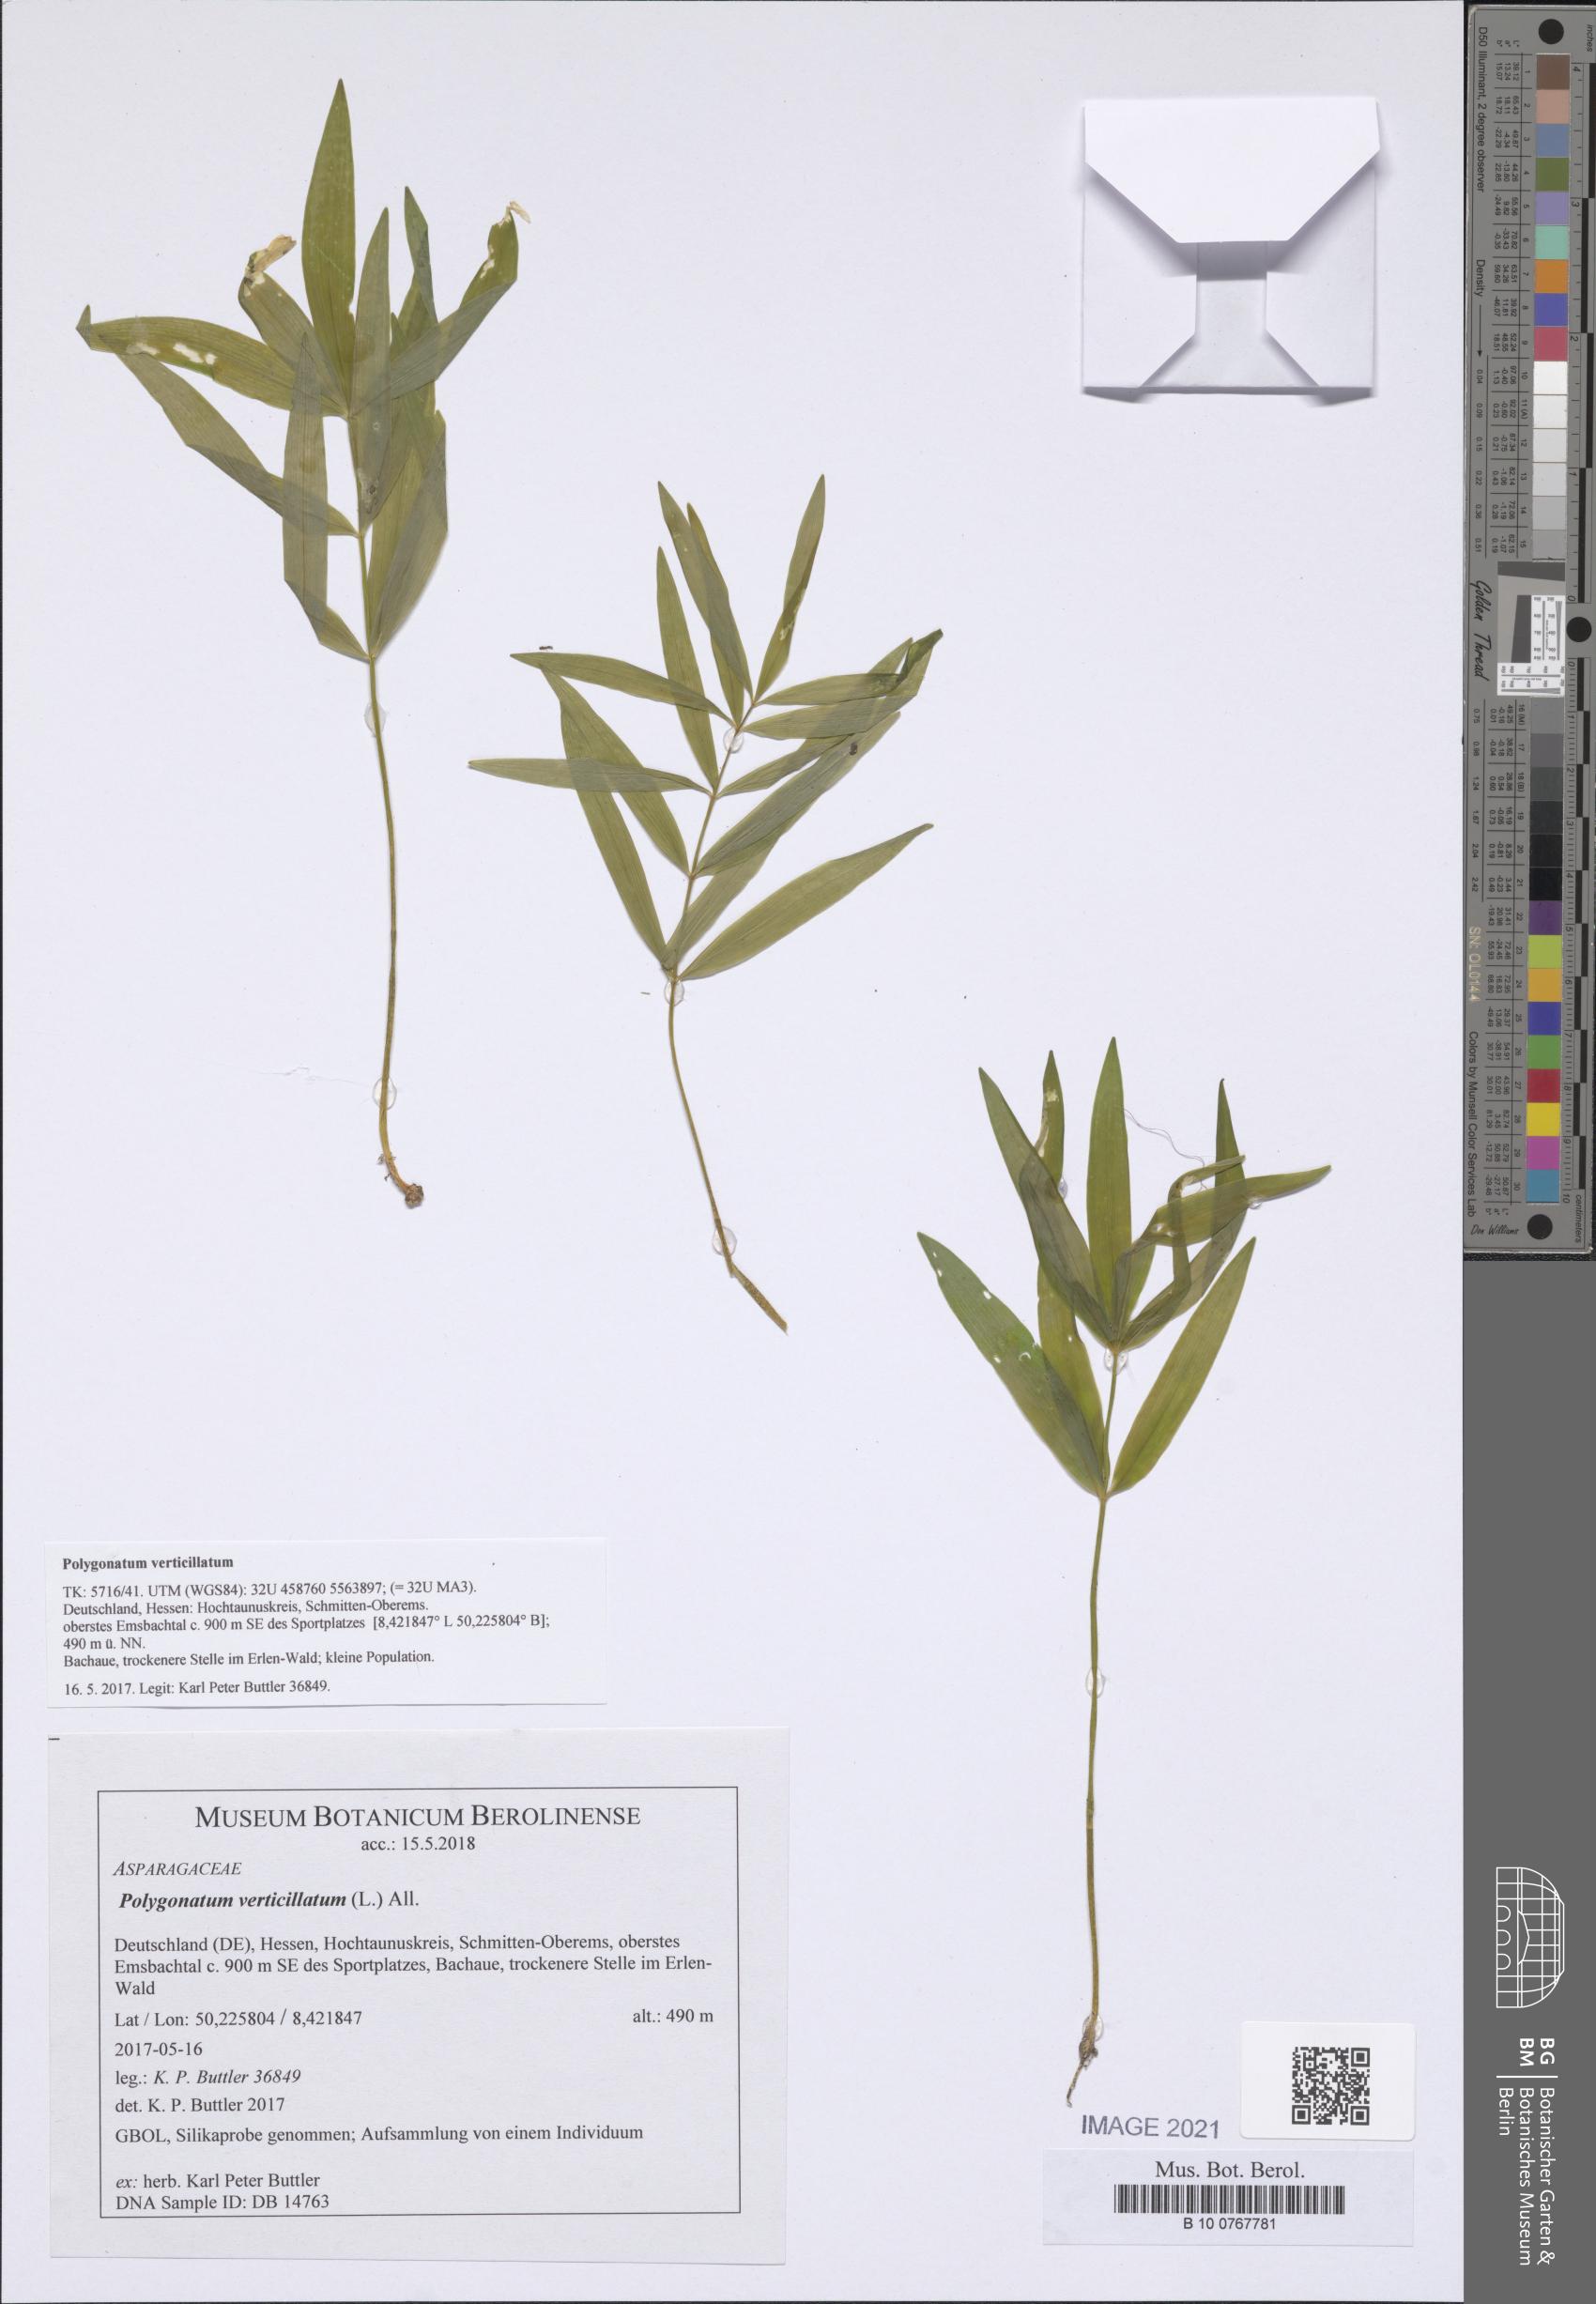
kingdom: Plantae
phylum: Tracheophyta
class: Liliopsida
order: Asparagales
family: Asparagaceae
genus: Polygonatum
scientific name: Polygonatum verticillatum
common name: Whorled solomon's-seal
